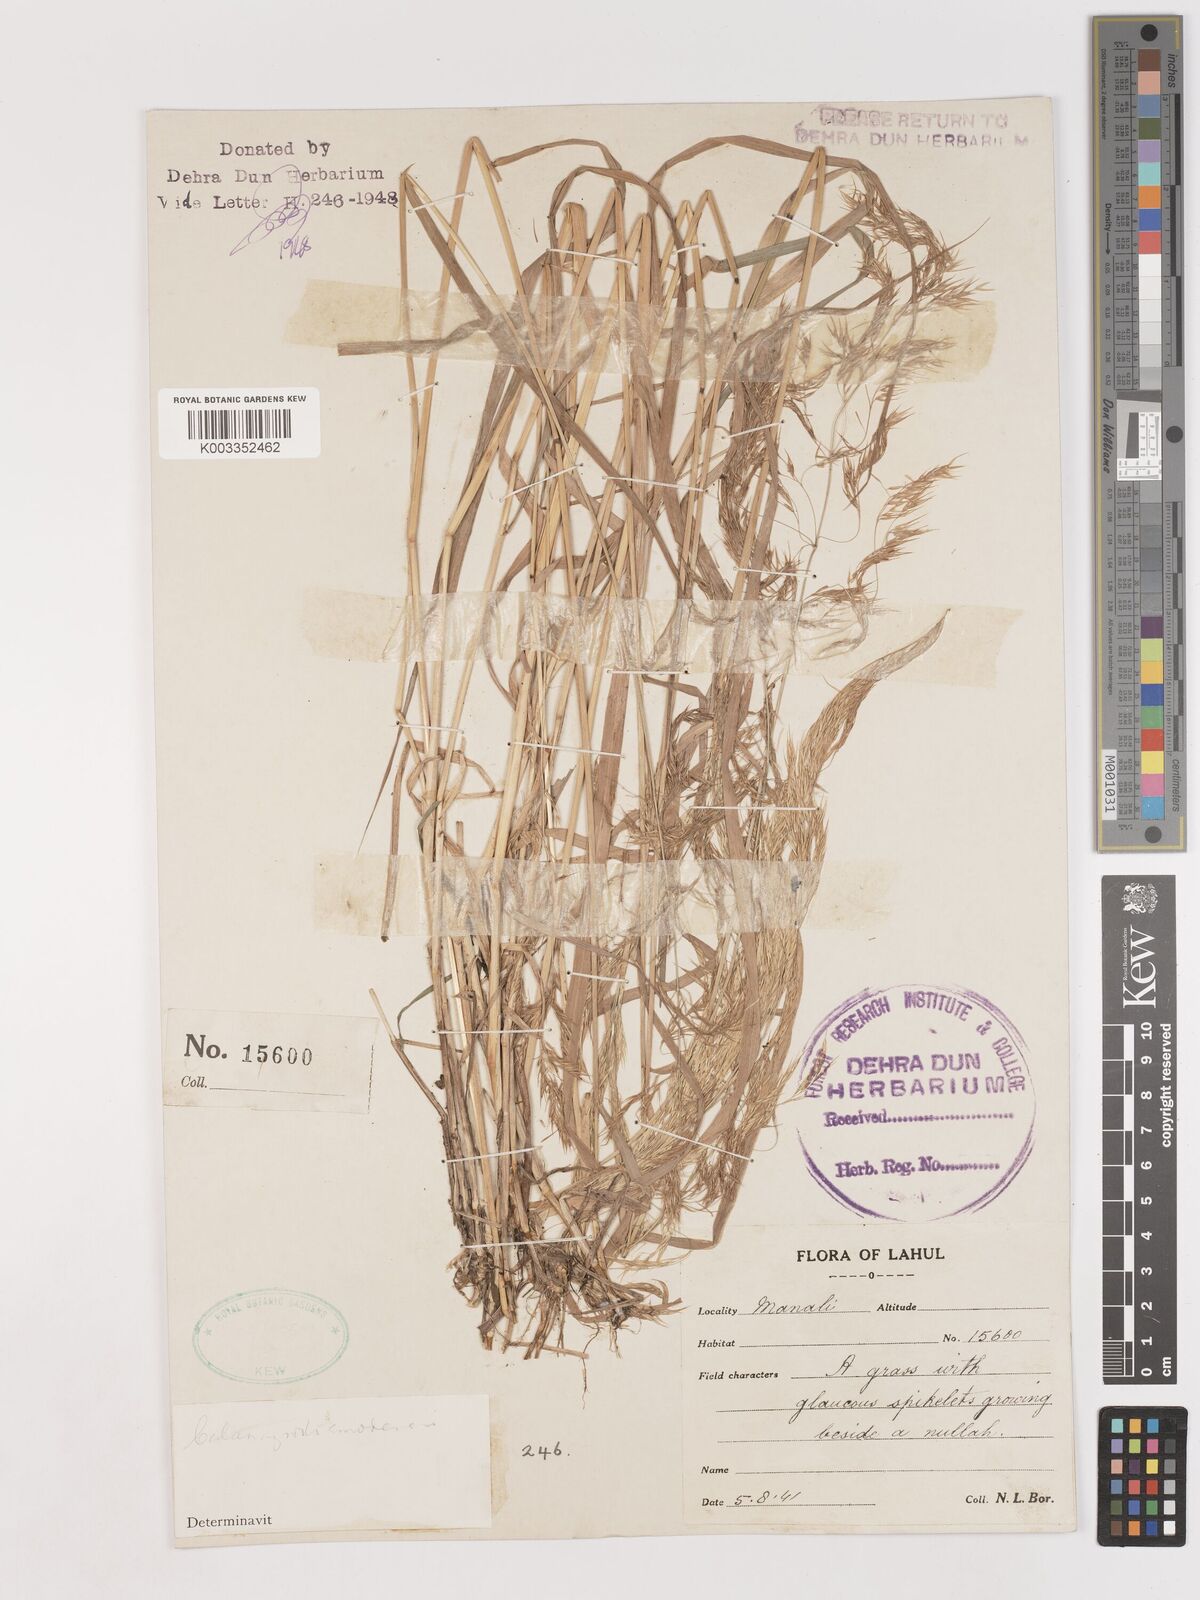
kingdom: Plantae
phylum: Tracheophyta
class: Liliopsida
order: Poales
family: Poaceae
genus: Calamagrostis
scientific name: Calamagrostis pseudophragmites
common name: Coastal small-reed
